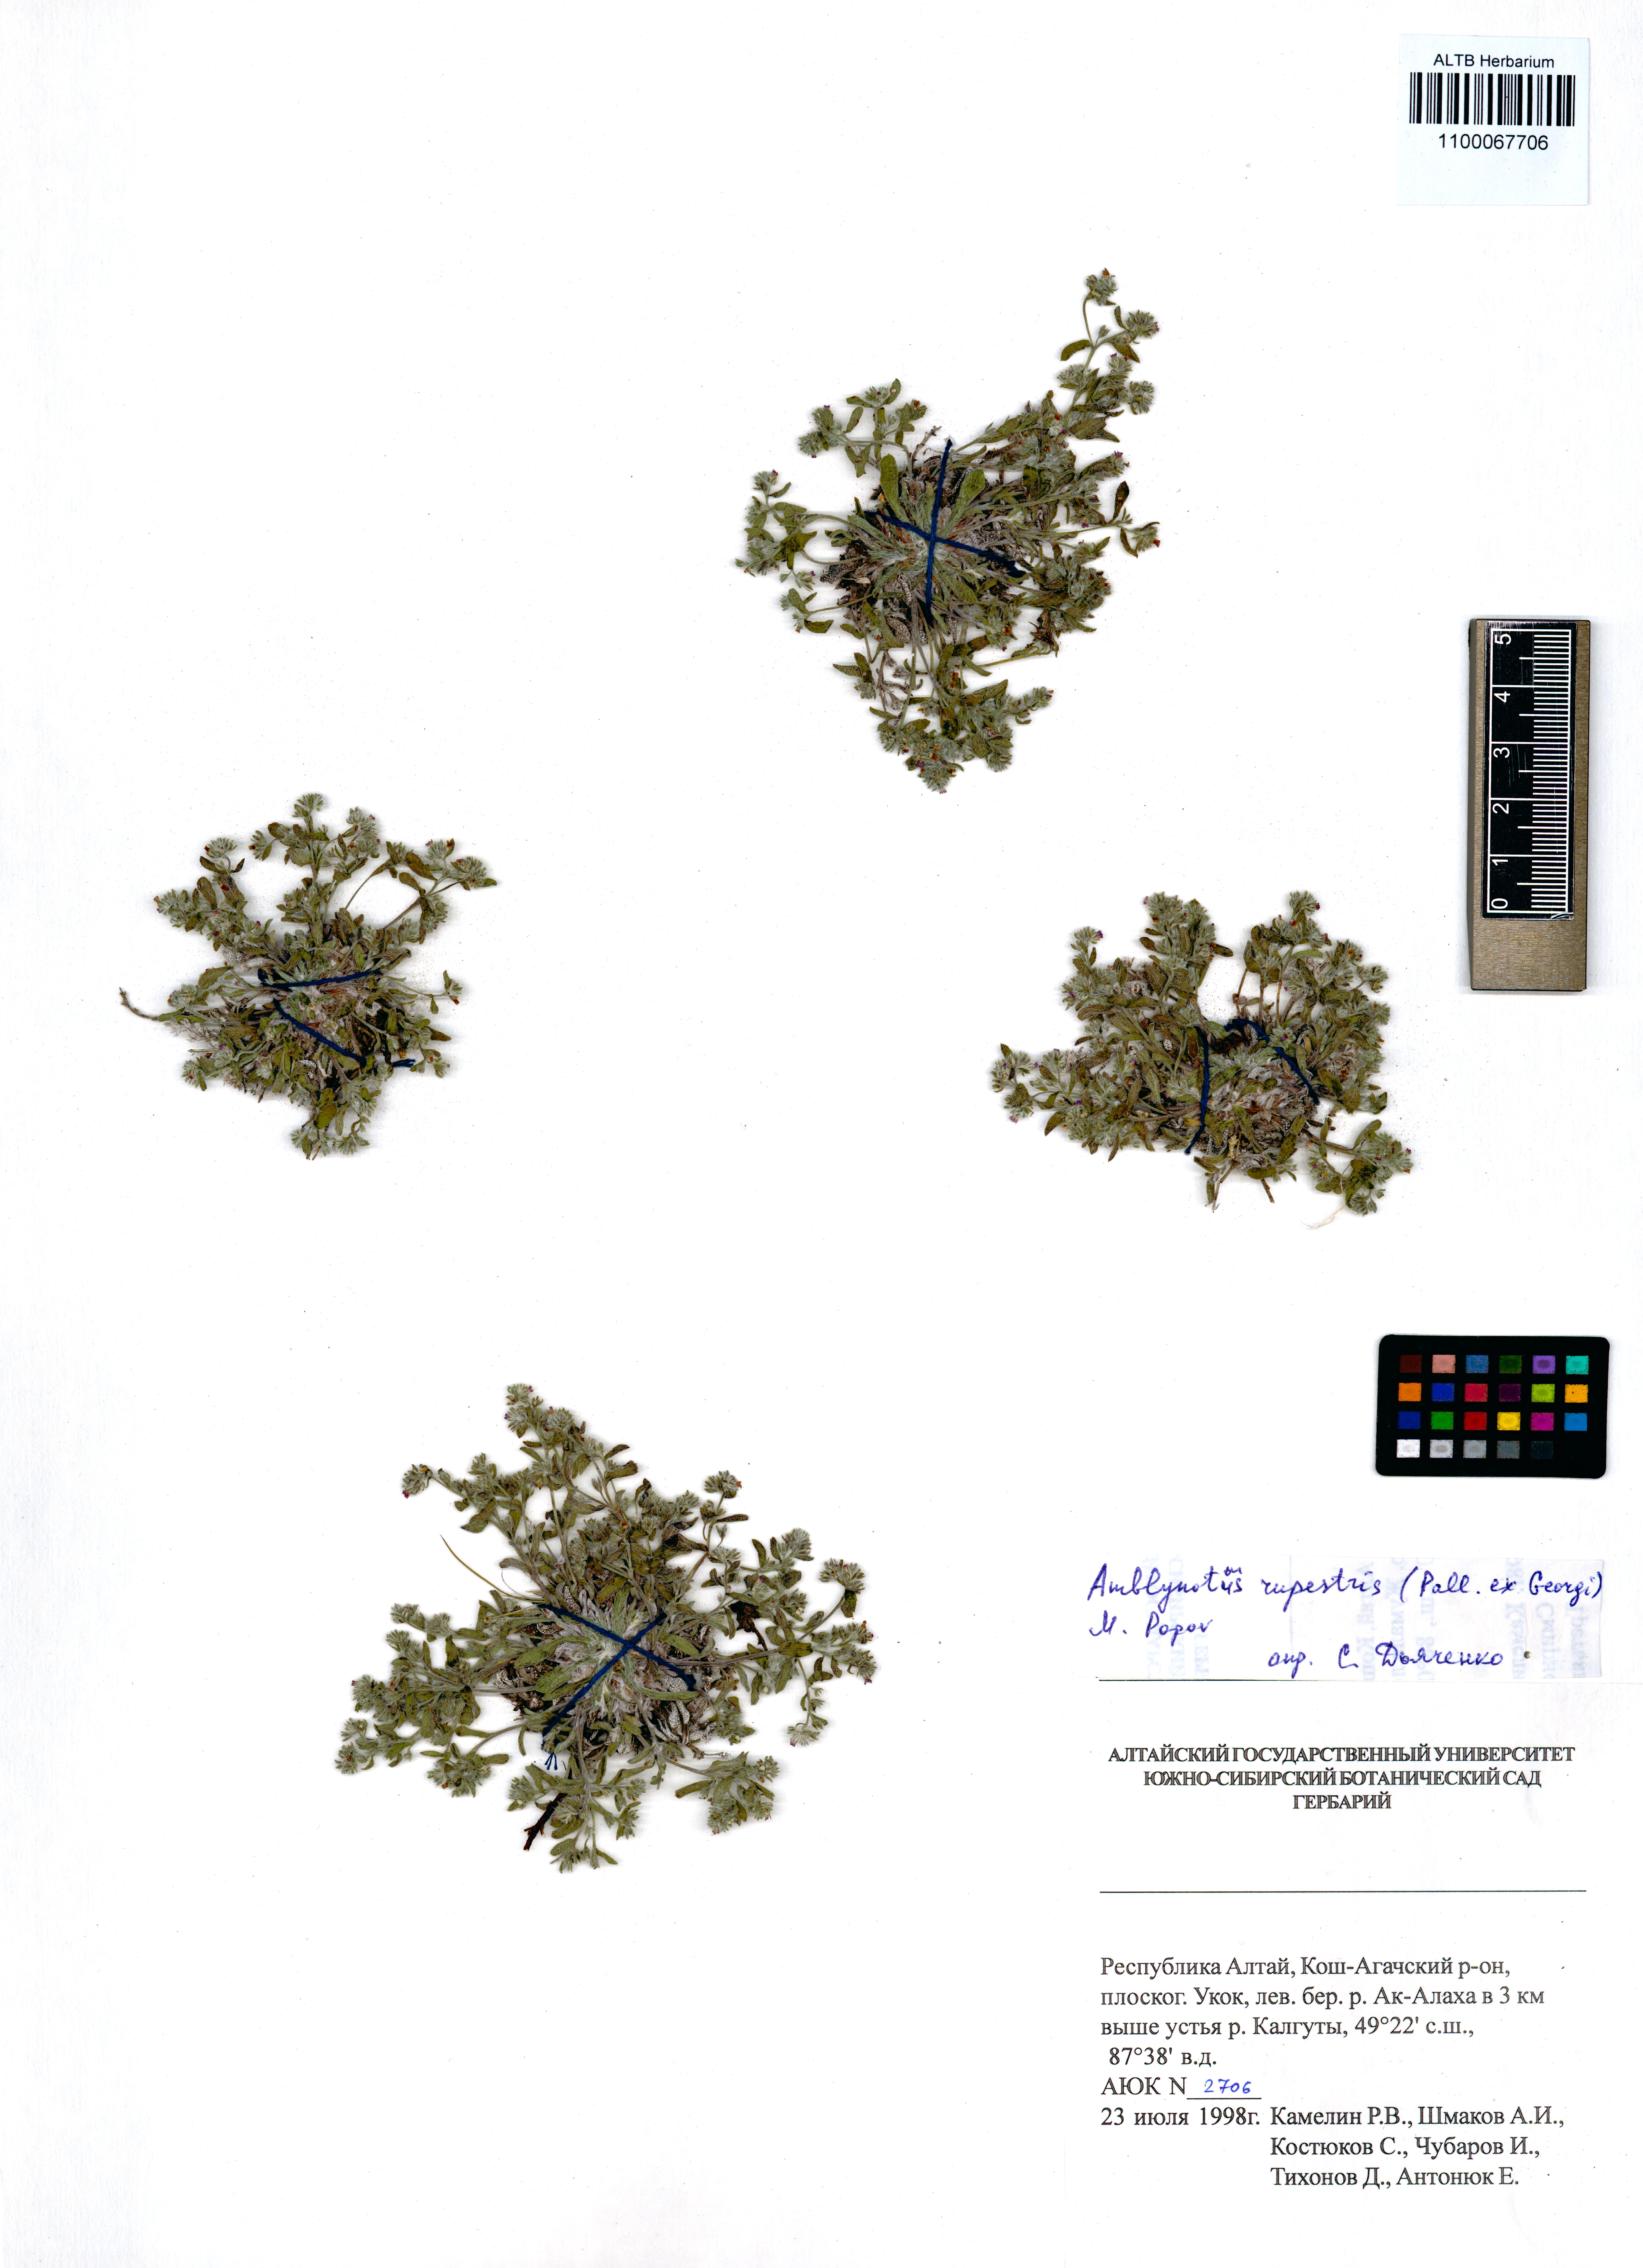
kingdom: Plantae
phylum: Tracheophyta
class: Magnoliopsida
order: Boraginales
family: Boraginaceae
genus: Eritrichium
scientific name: Eritrichium rupestre
